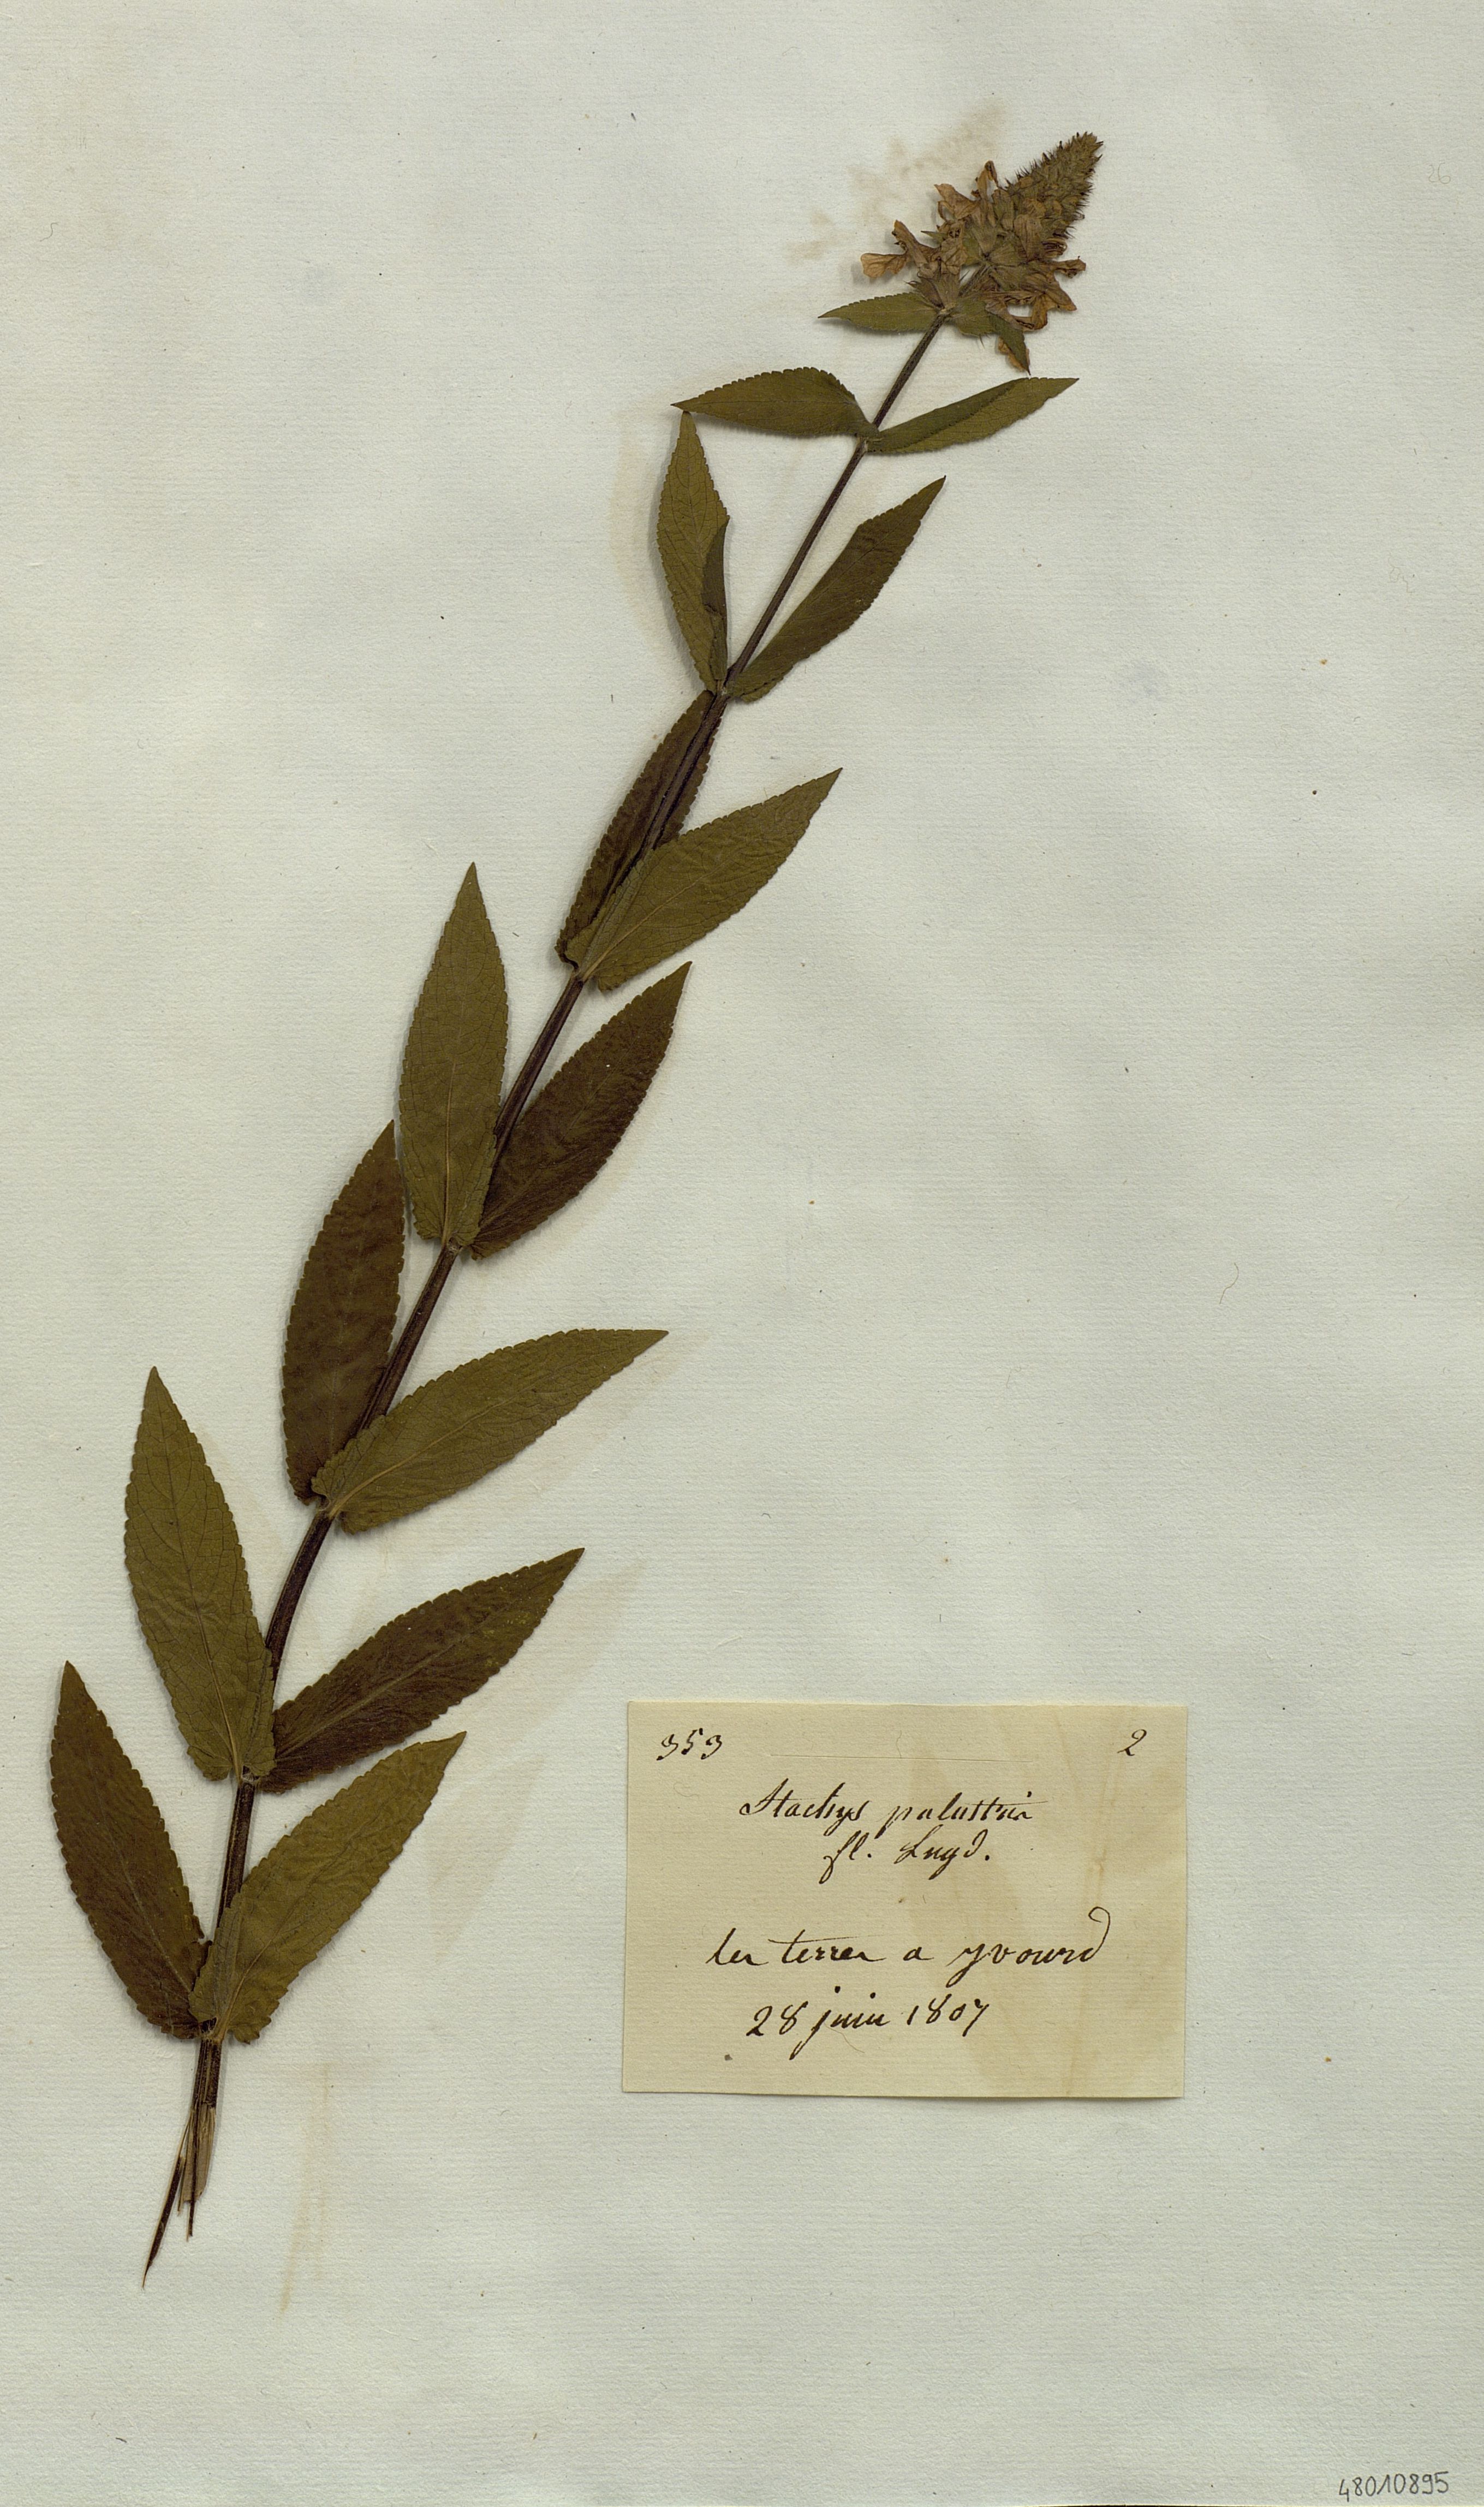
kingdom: Plantae
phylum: Tracheophyta
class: Magnoliopsida
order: Lamiales
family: Lamiaceae
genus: Stachys
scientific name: Stachys palustris
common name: Marsh woundwort
